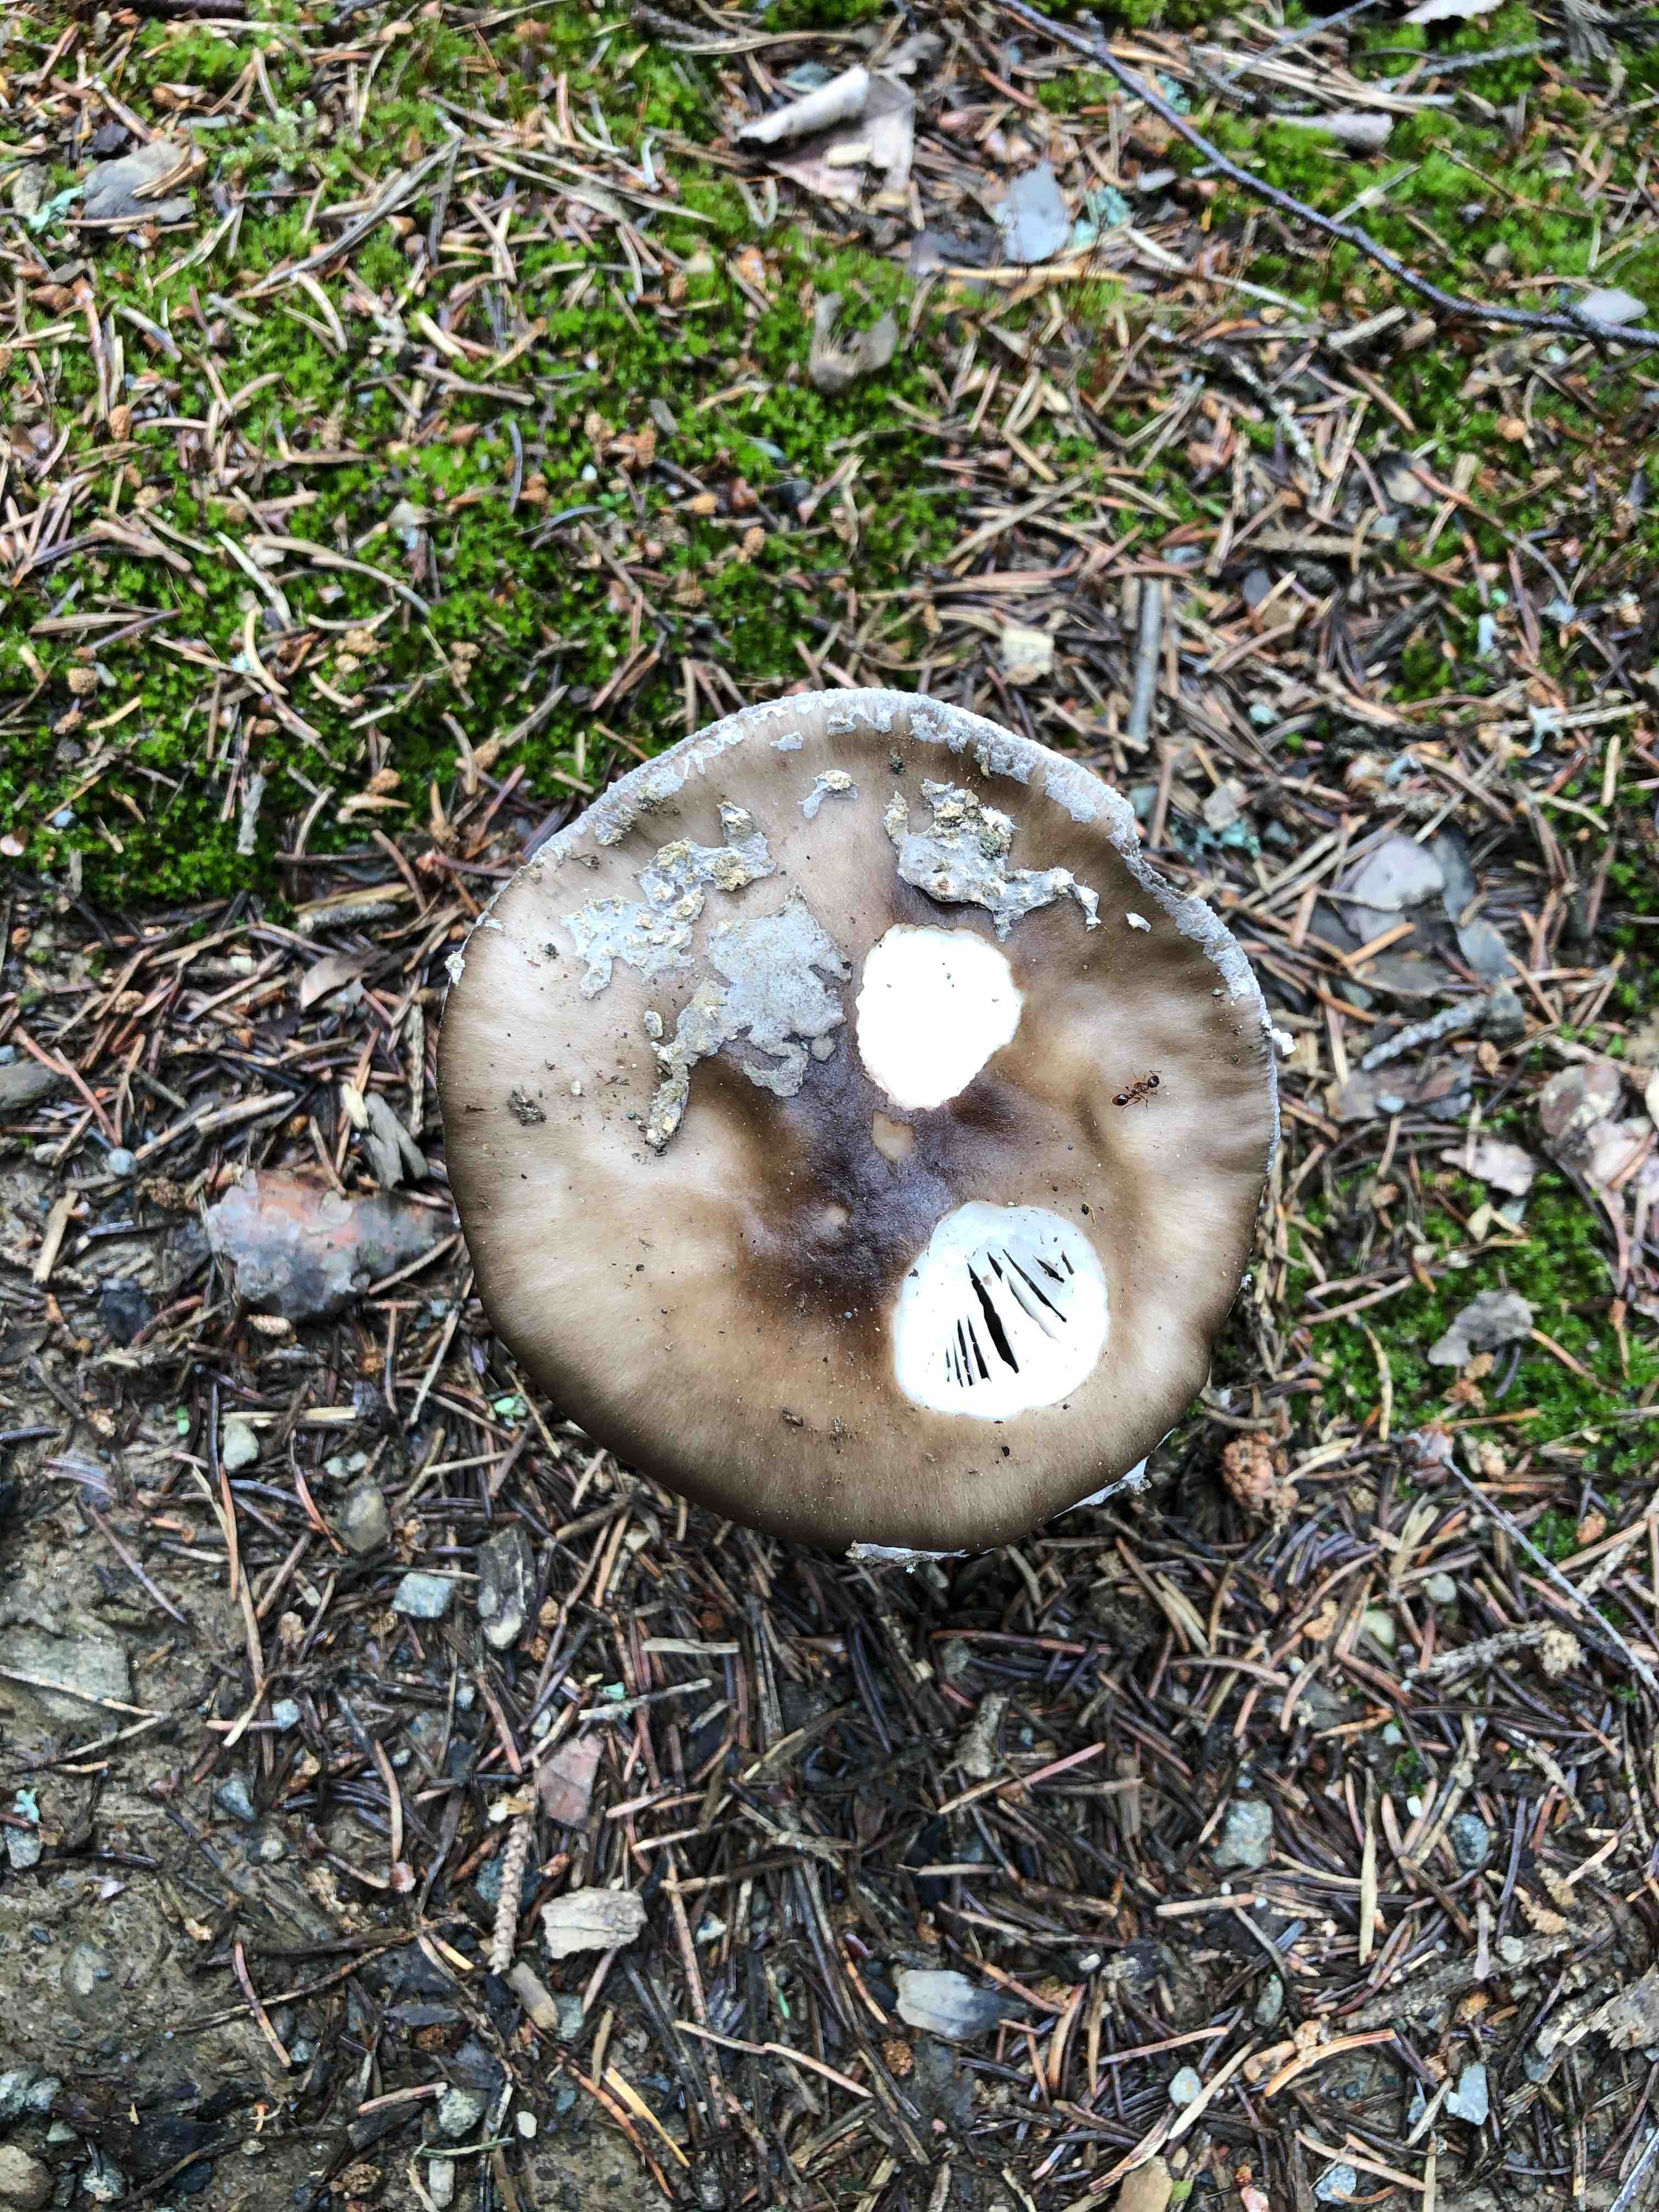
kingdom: Fungi
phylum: Basidiomycota
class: Agaricomycetes
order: Agaricales
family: Amanitaceae
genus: Amanita
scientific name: Amanita
